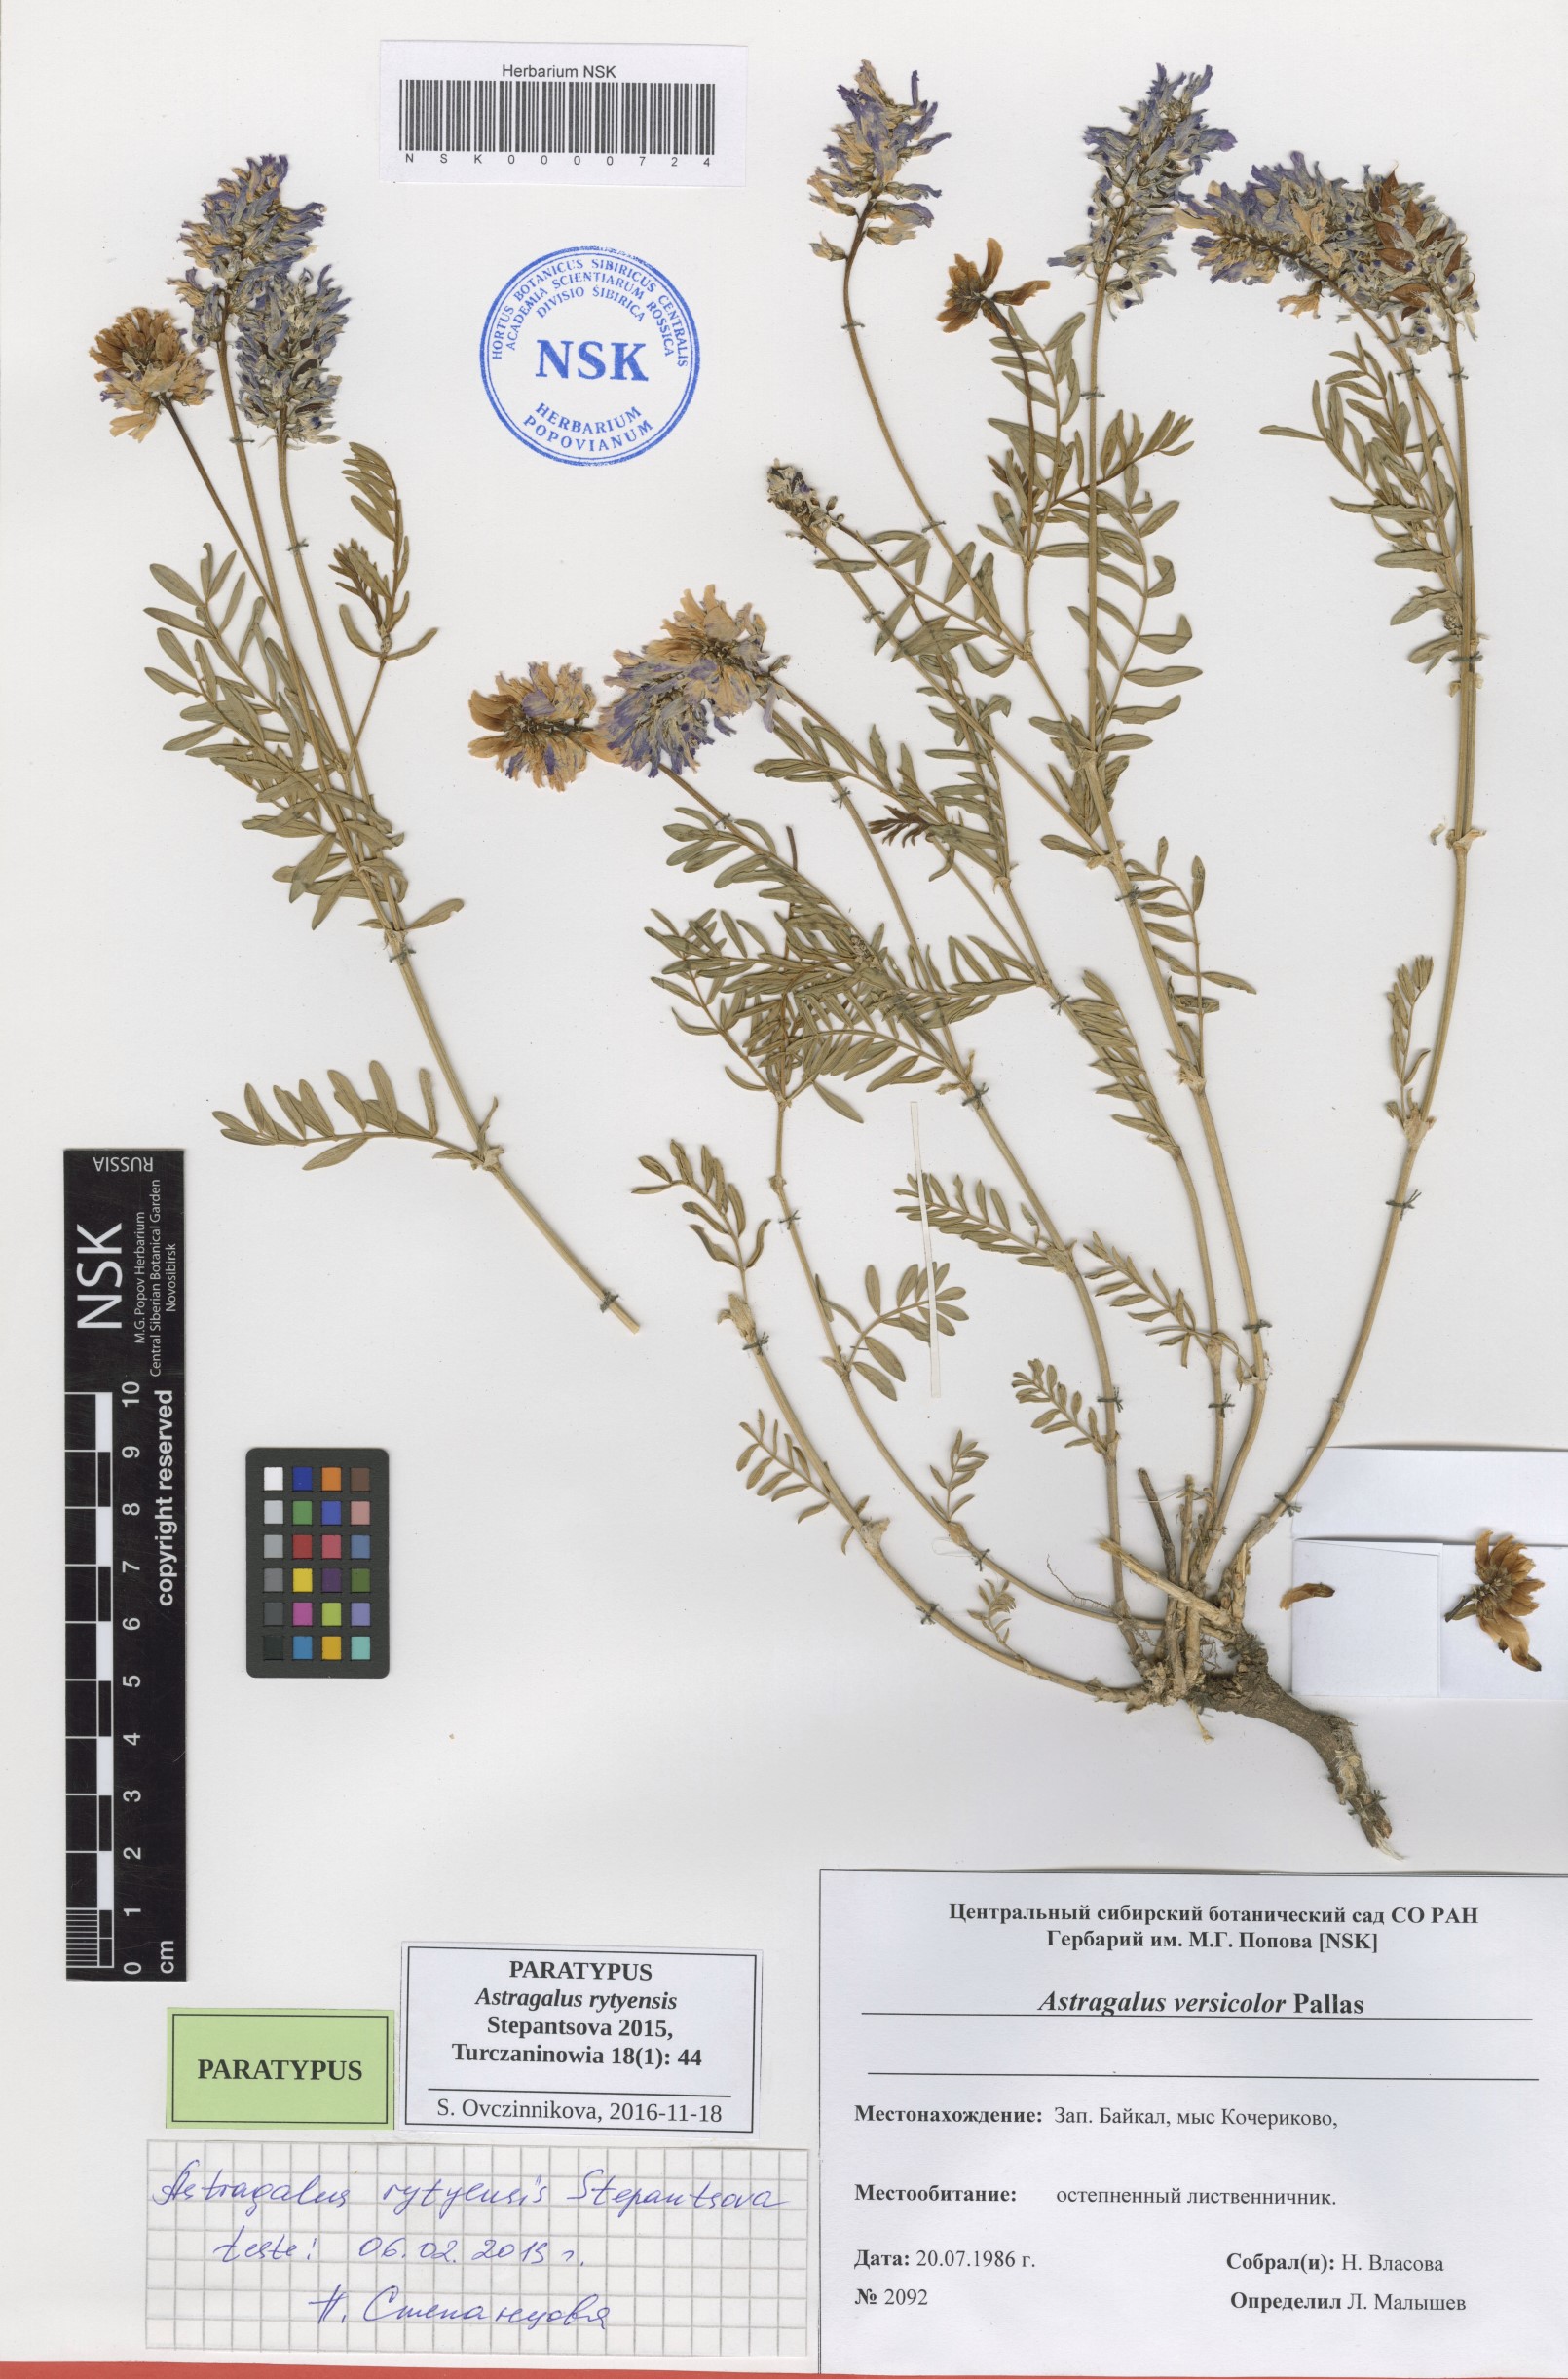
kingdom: Plantae
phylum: Tracheophyta
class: Magnoliopsida
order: Fabales
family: Fabaceae
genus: Astragalus
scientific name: Astragalus rytyensis
